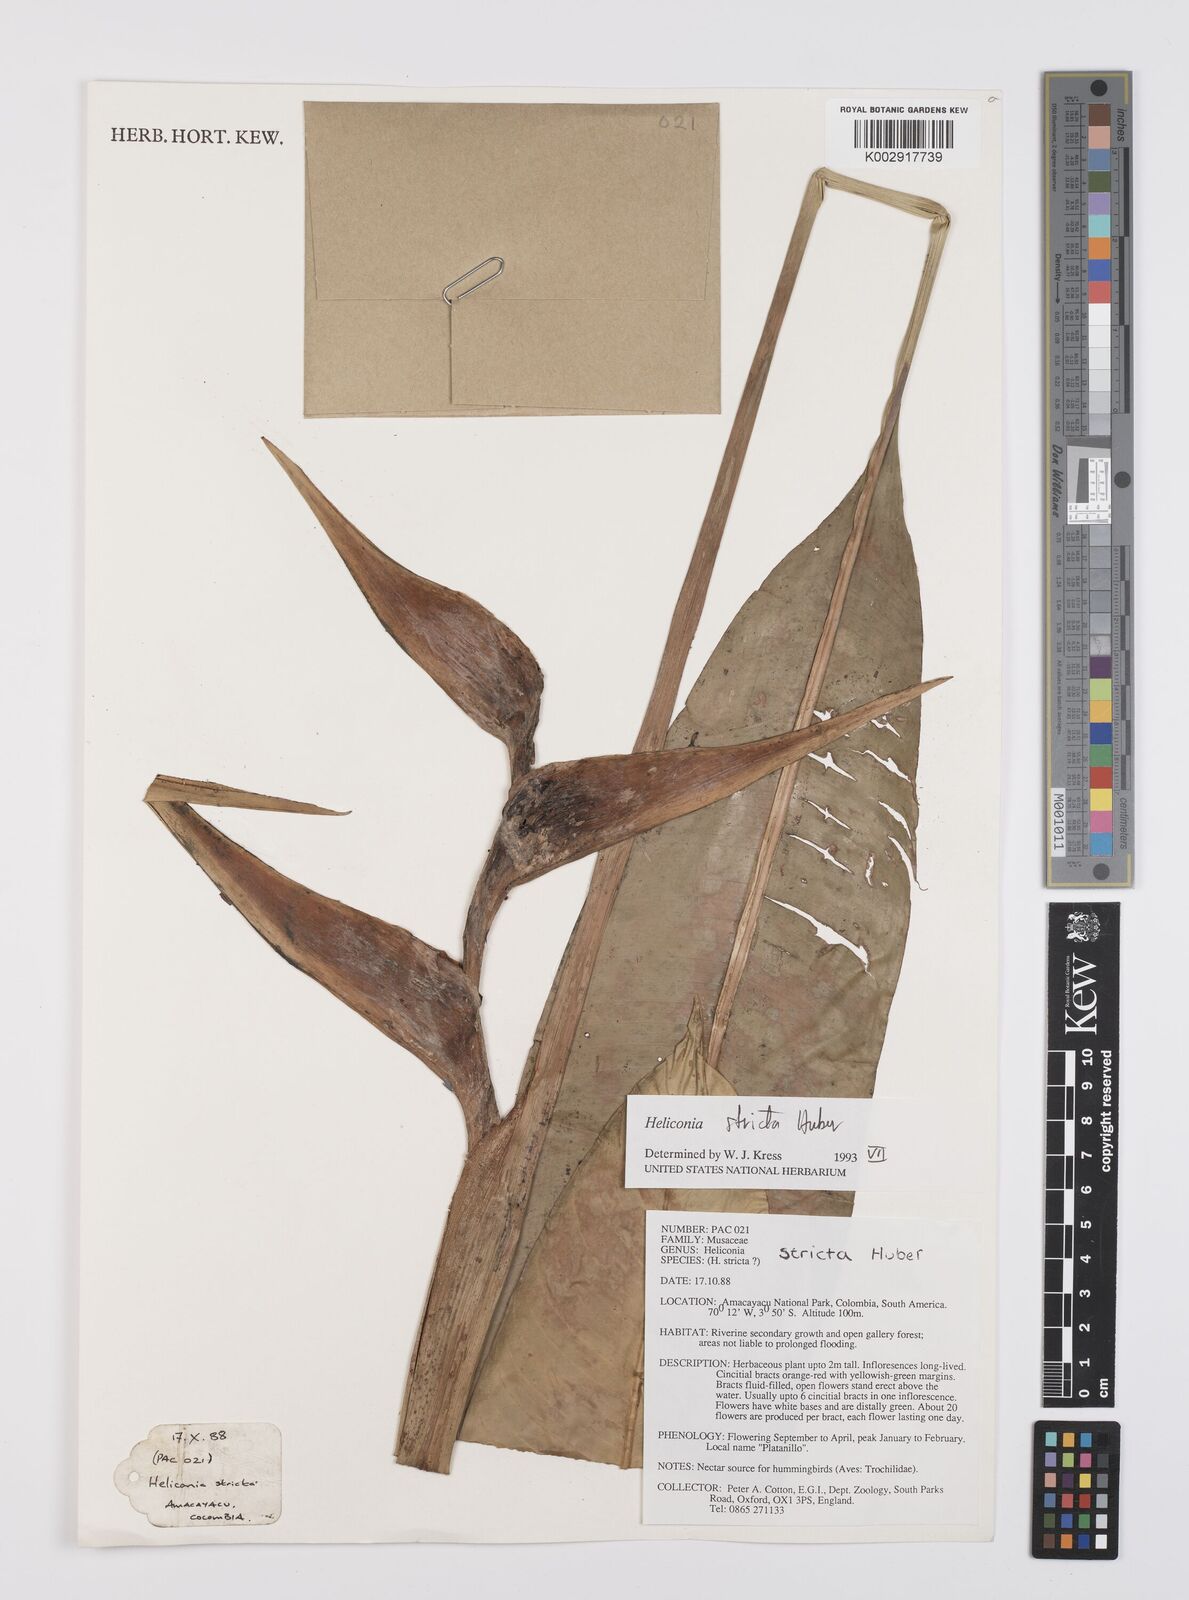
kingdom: Plantae
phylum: Tracheophyta
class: Liliopsida
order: Zingiberales
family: Heliconiaceae
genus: Heliconia
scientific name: Heliconia stricta
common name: Small lobster claw
